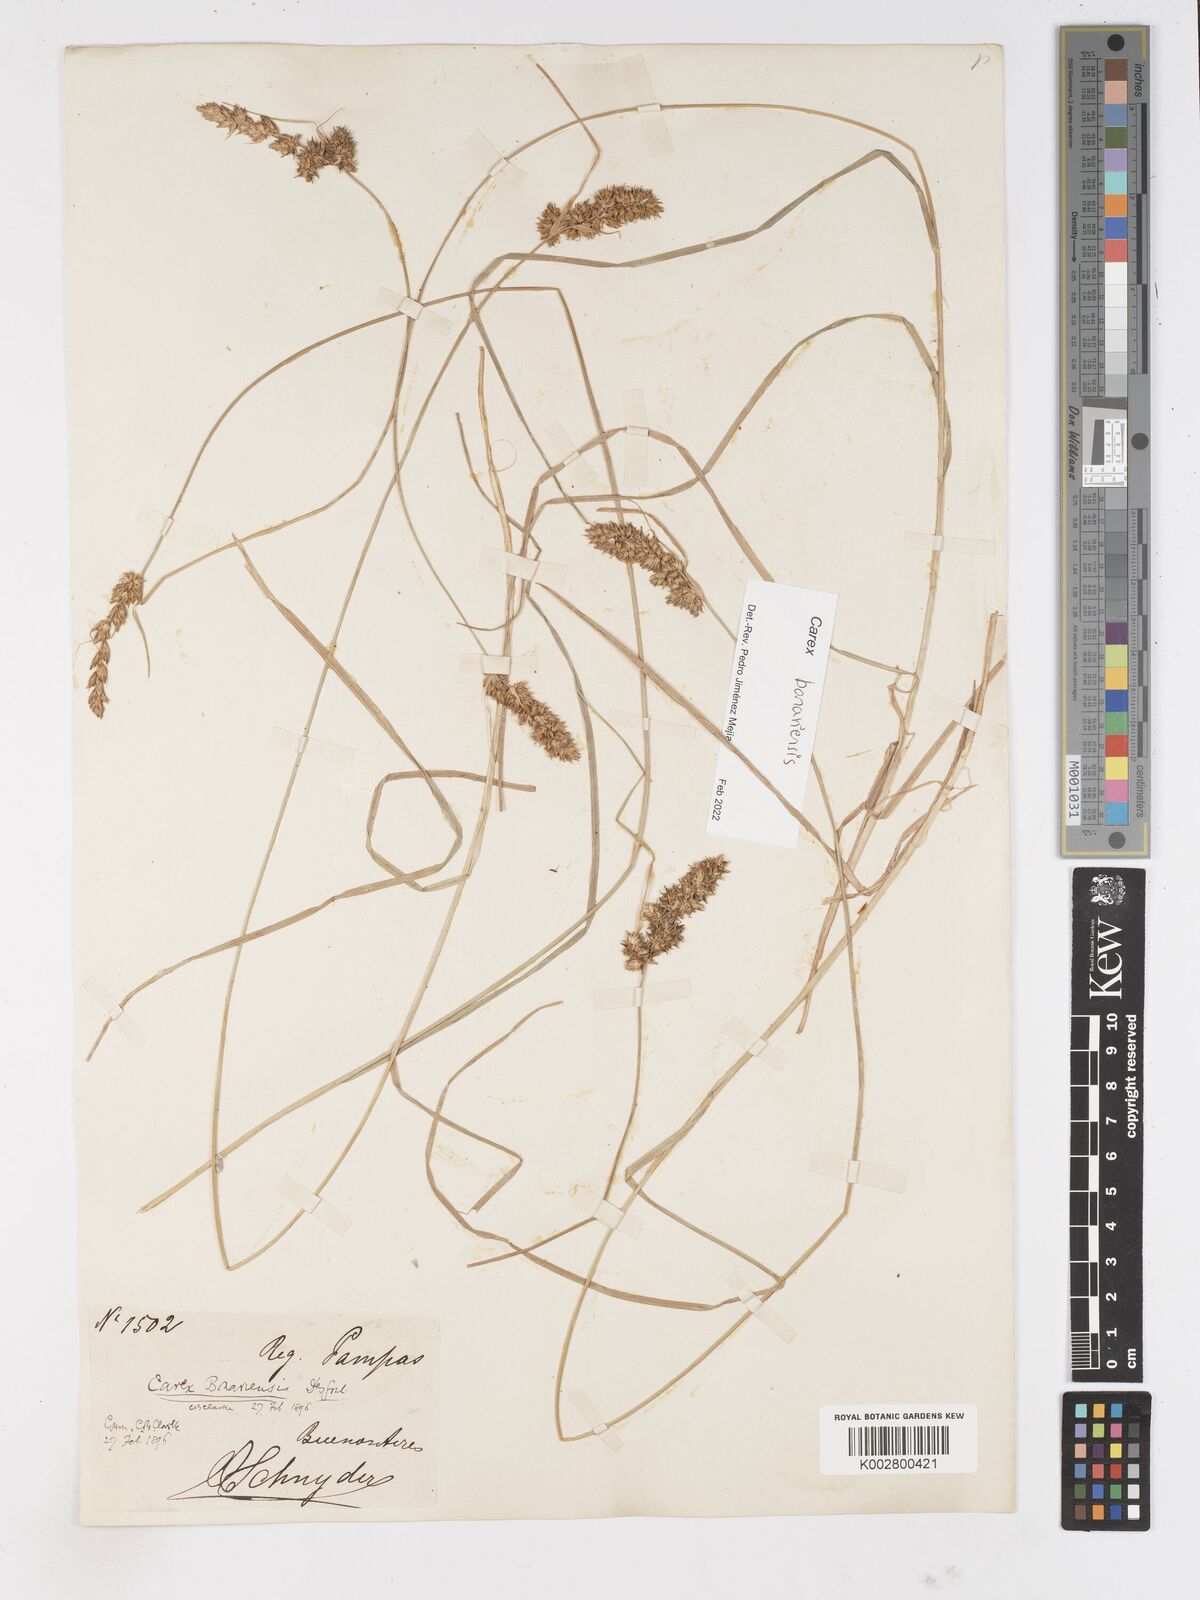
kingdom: Plantae
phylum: Tracheophyta
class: Liliopsida
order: Poales
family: Cyperaceae
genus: Carex
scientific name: Carex bonariensis
